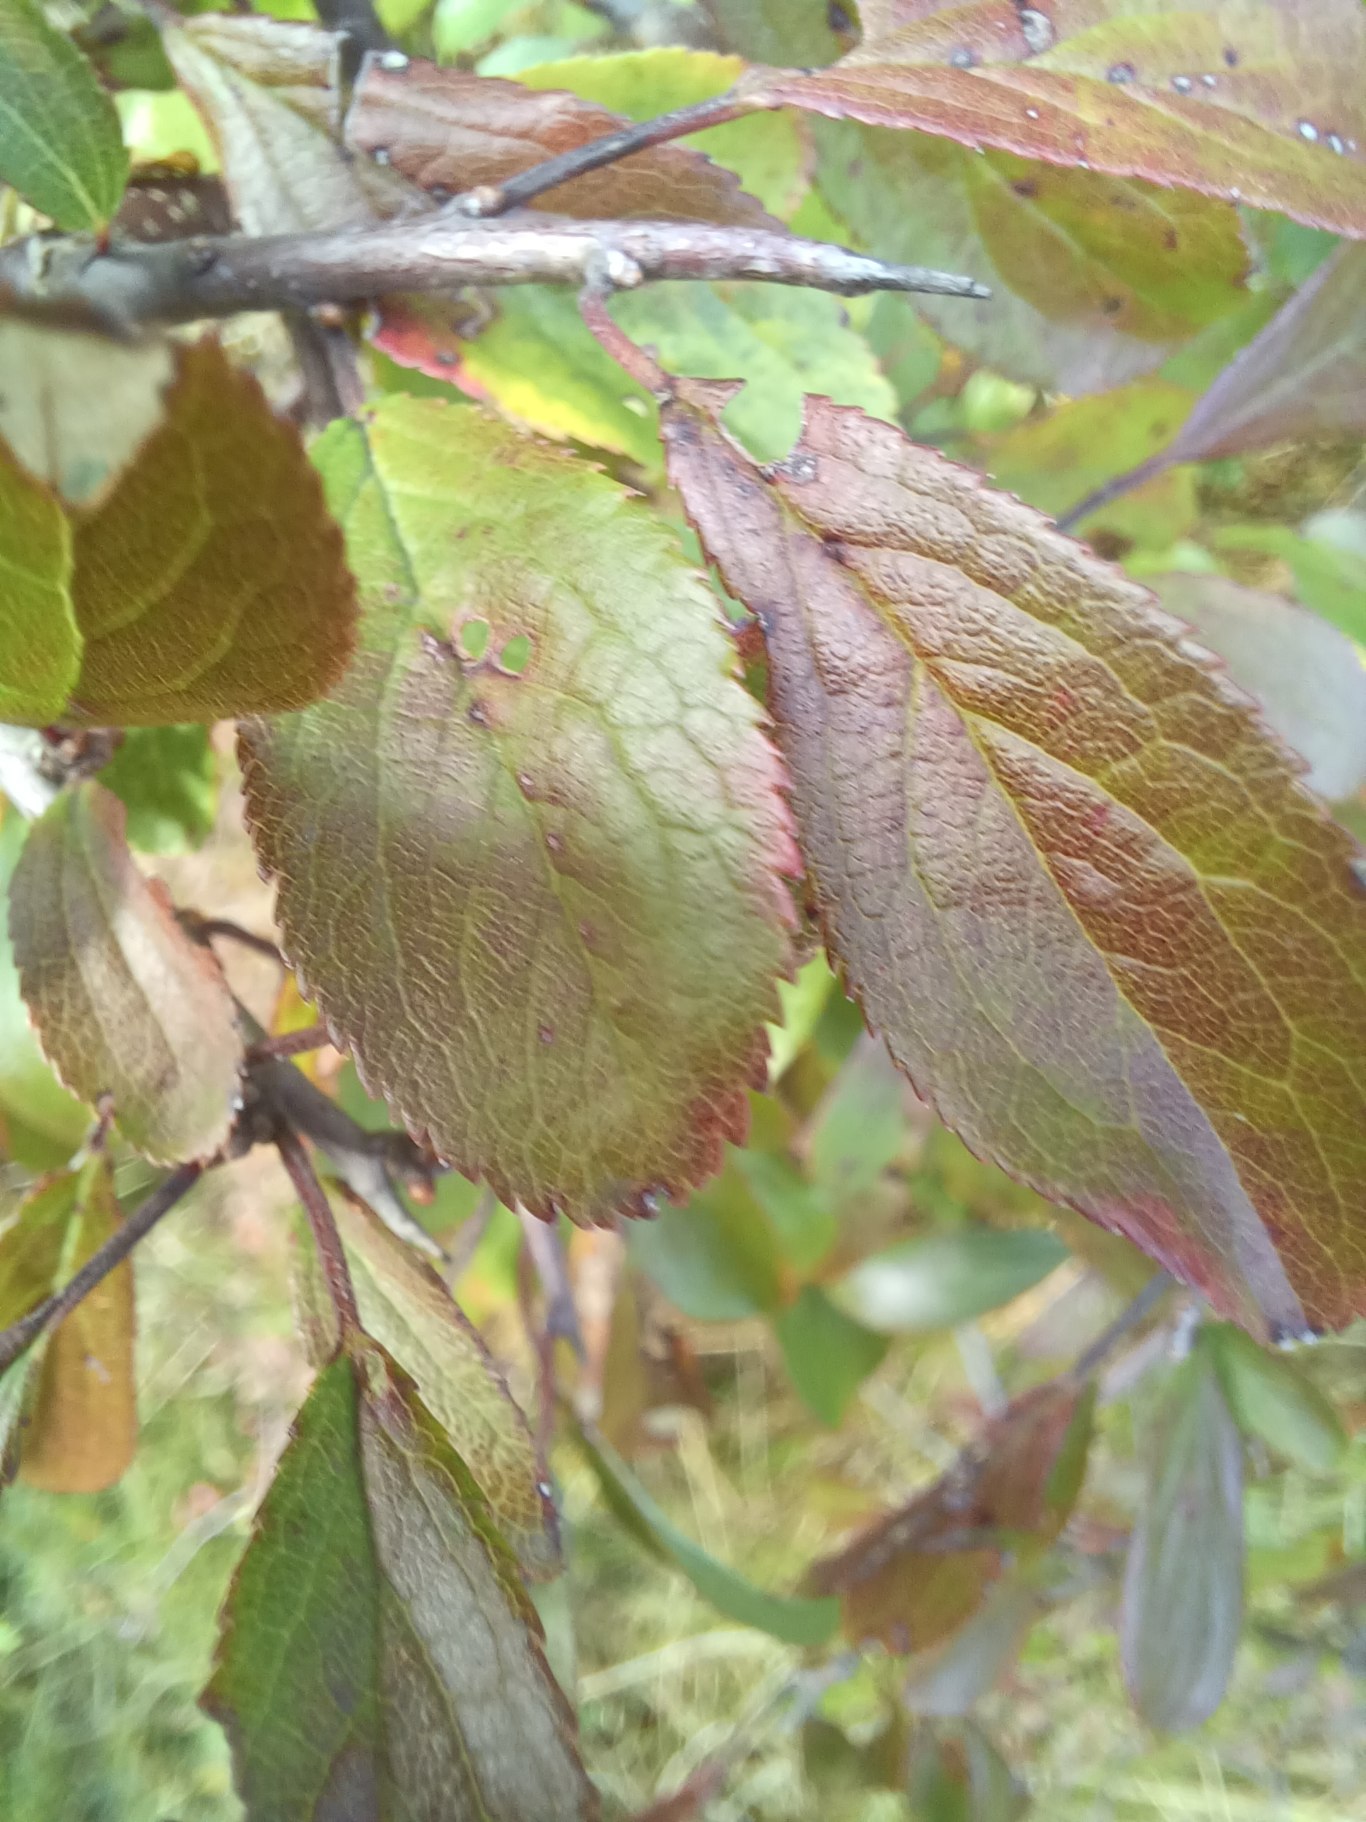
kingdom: Plantae
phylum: Tracheophyta
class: Magnoliopsida
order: Rosales
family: Rosaceae
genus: Prunus
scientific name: Prunus spinosa
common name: Slåen
